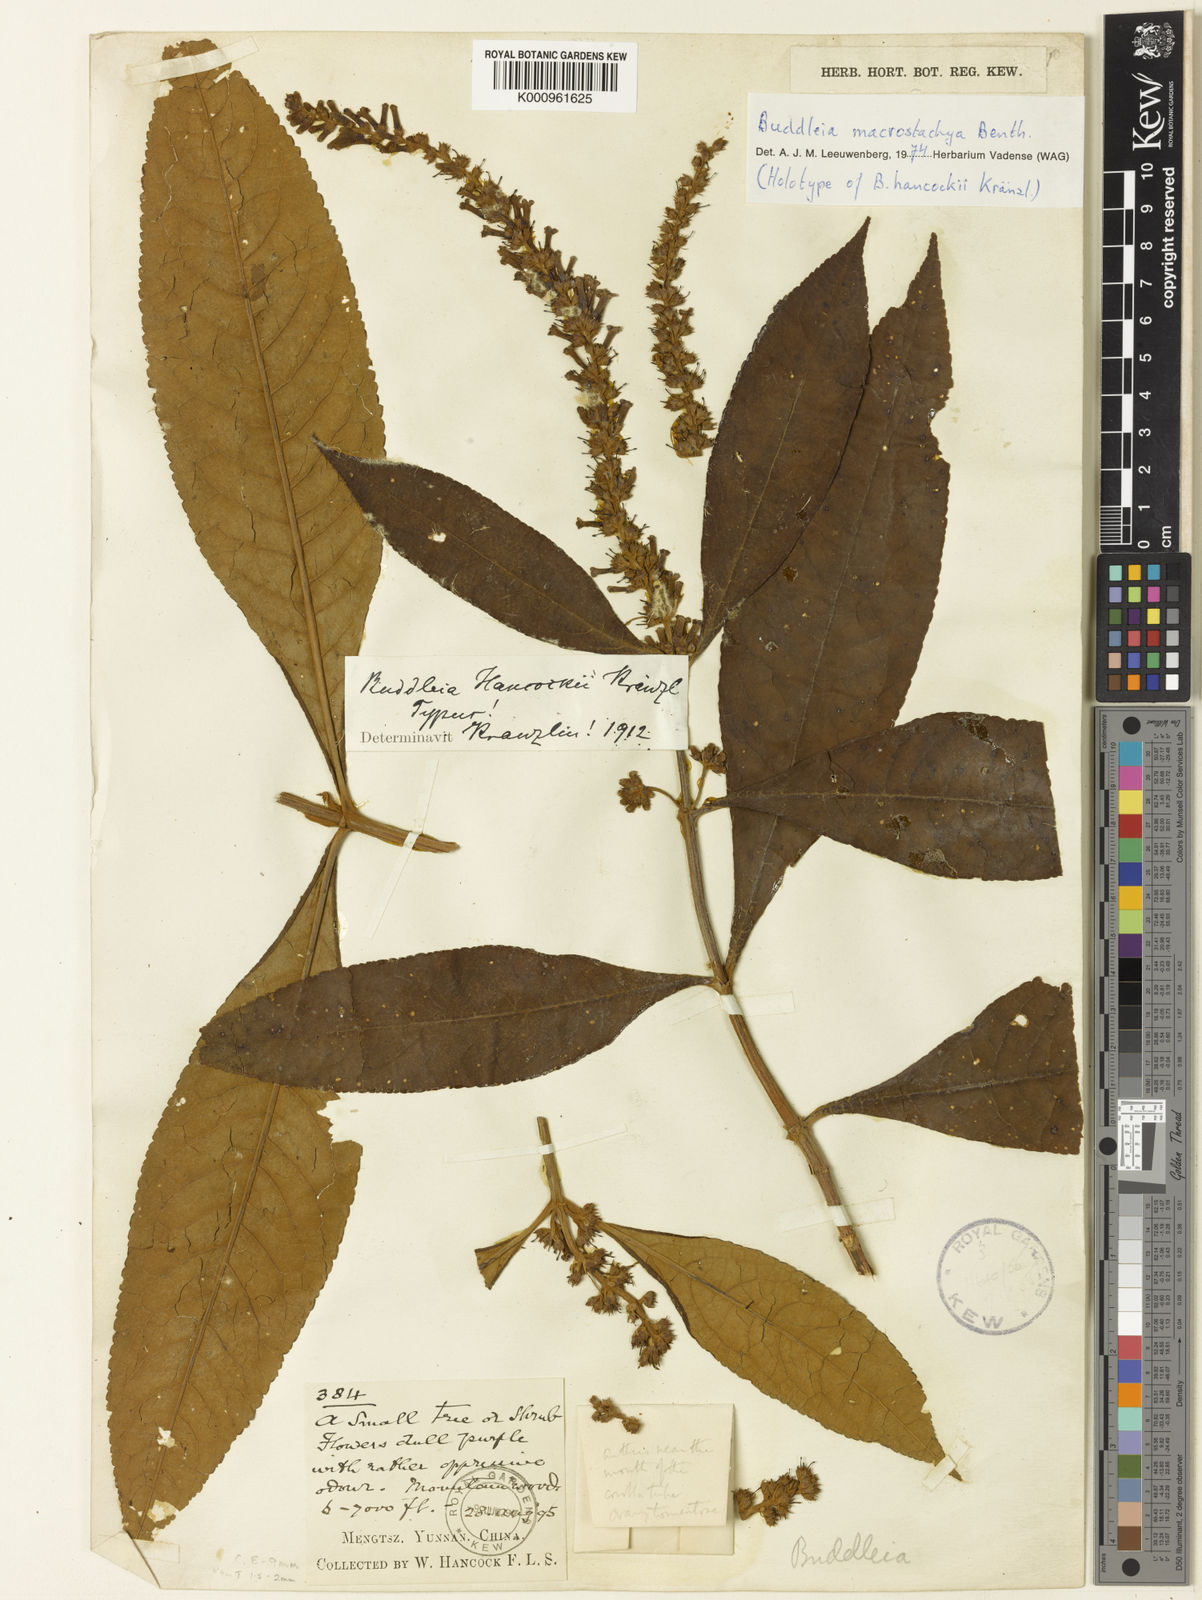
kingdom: Plantae
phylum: Tracheophyta
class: Magnoliopsida
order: Lamiales
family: Scrophulariaceae
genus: Buddleja
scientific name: Buddleja macrostachya
